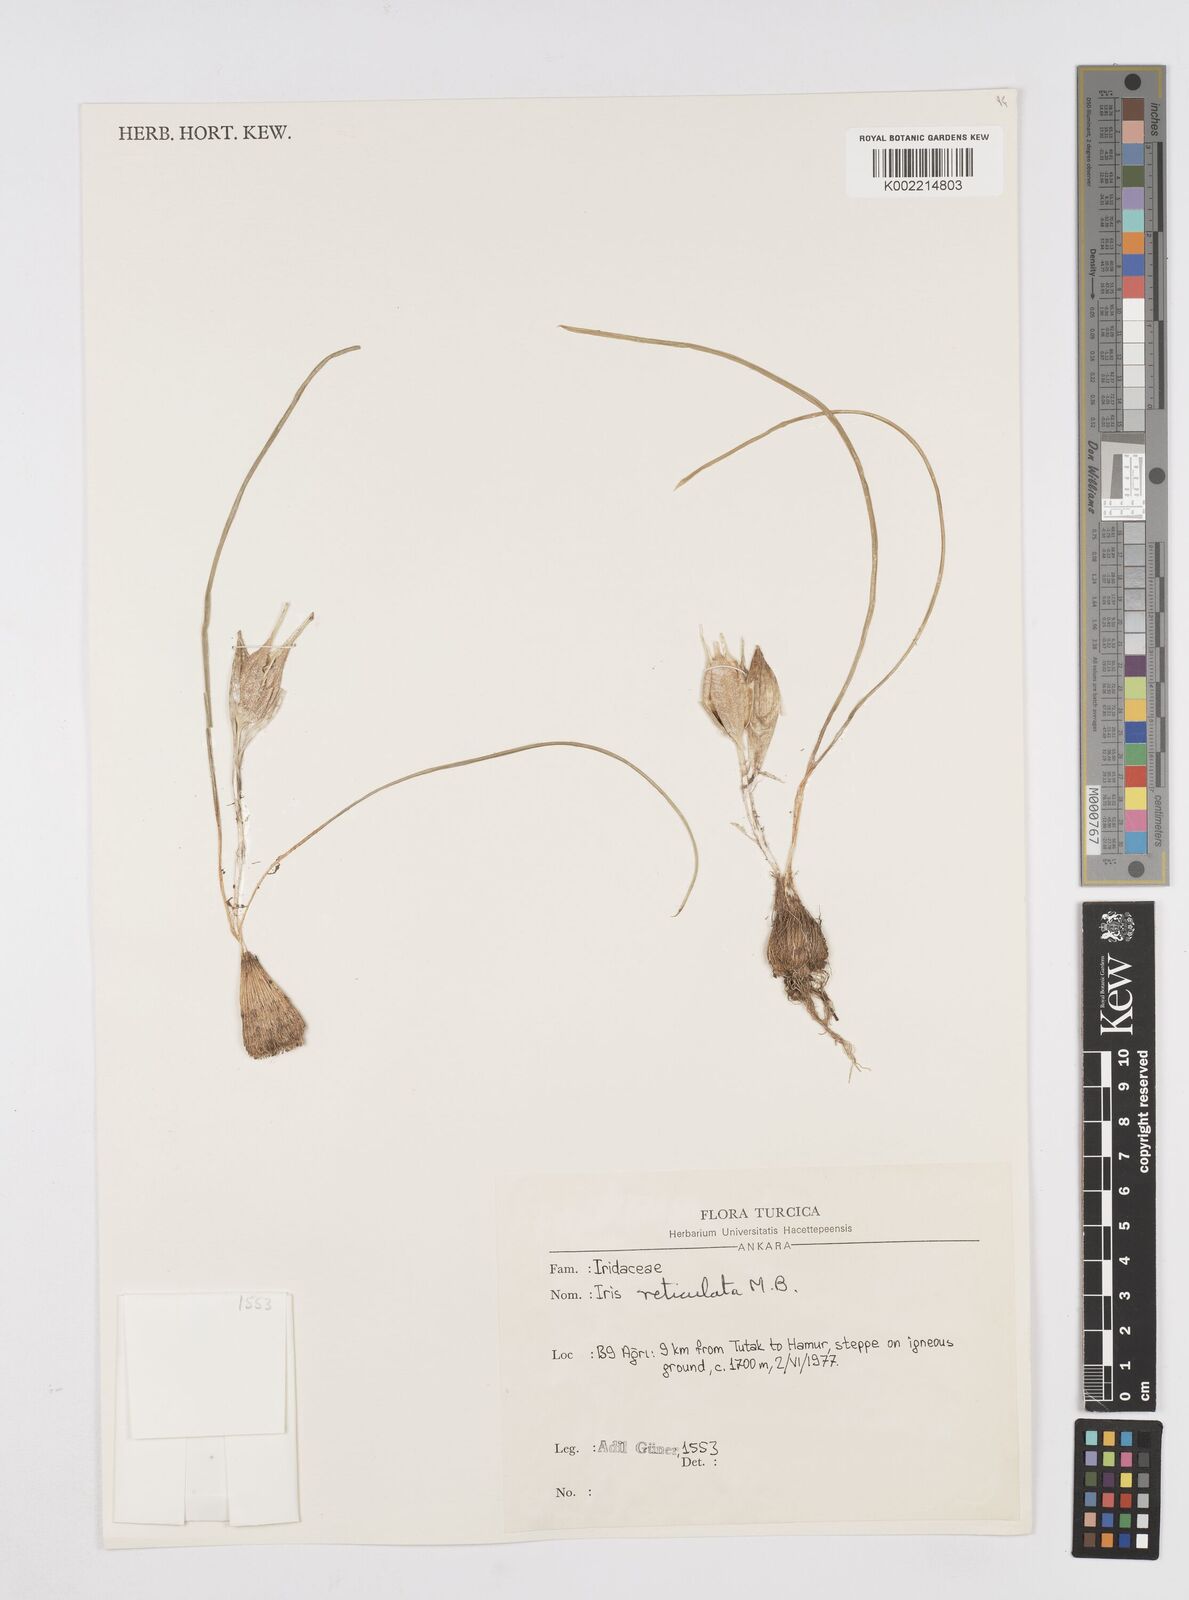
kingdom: Plantae
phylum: Tracheophyta
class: Liliopsida
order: Asparagales
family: Iridaceae
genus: Iris
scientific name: Iris reticulata
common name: Netted iris
